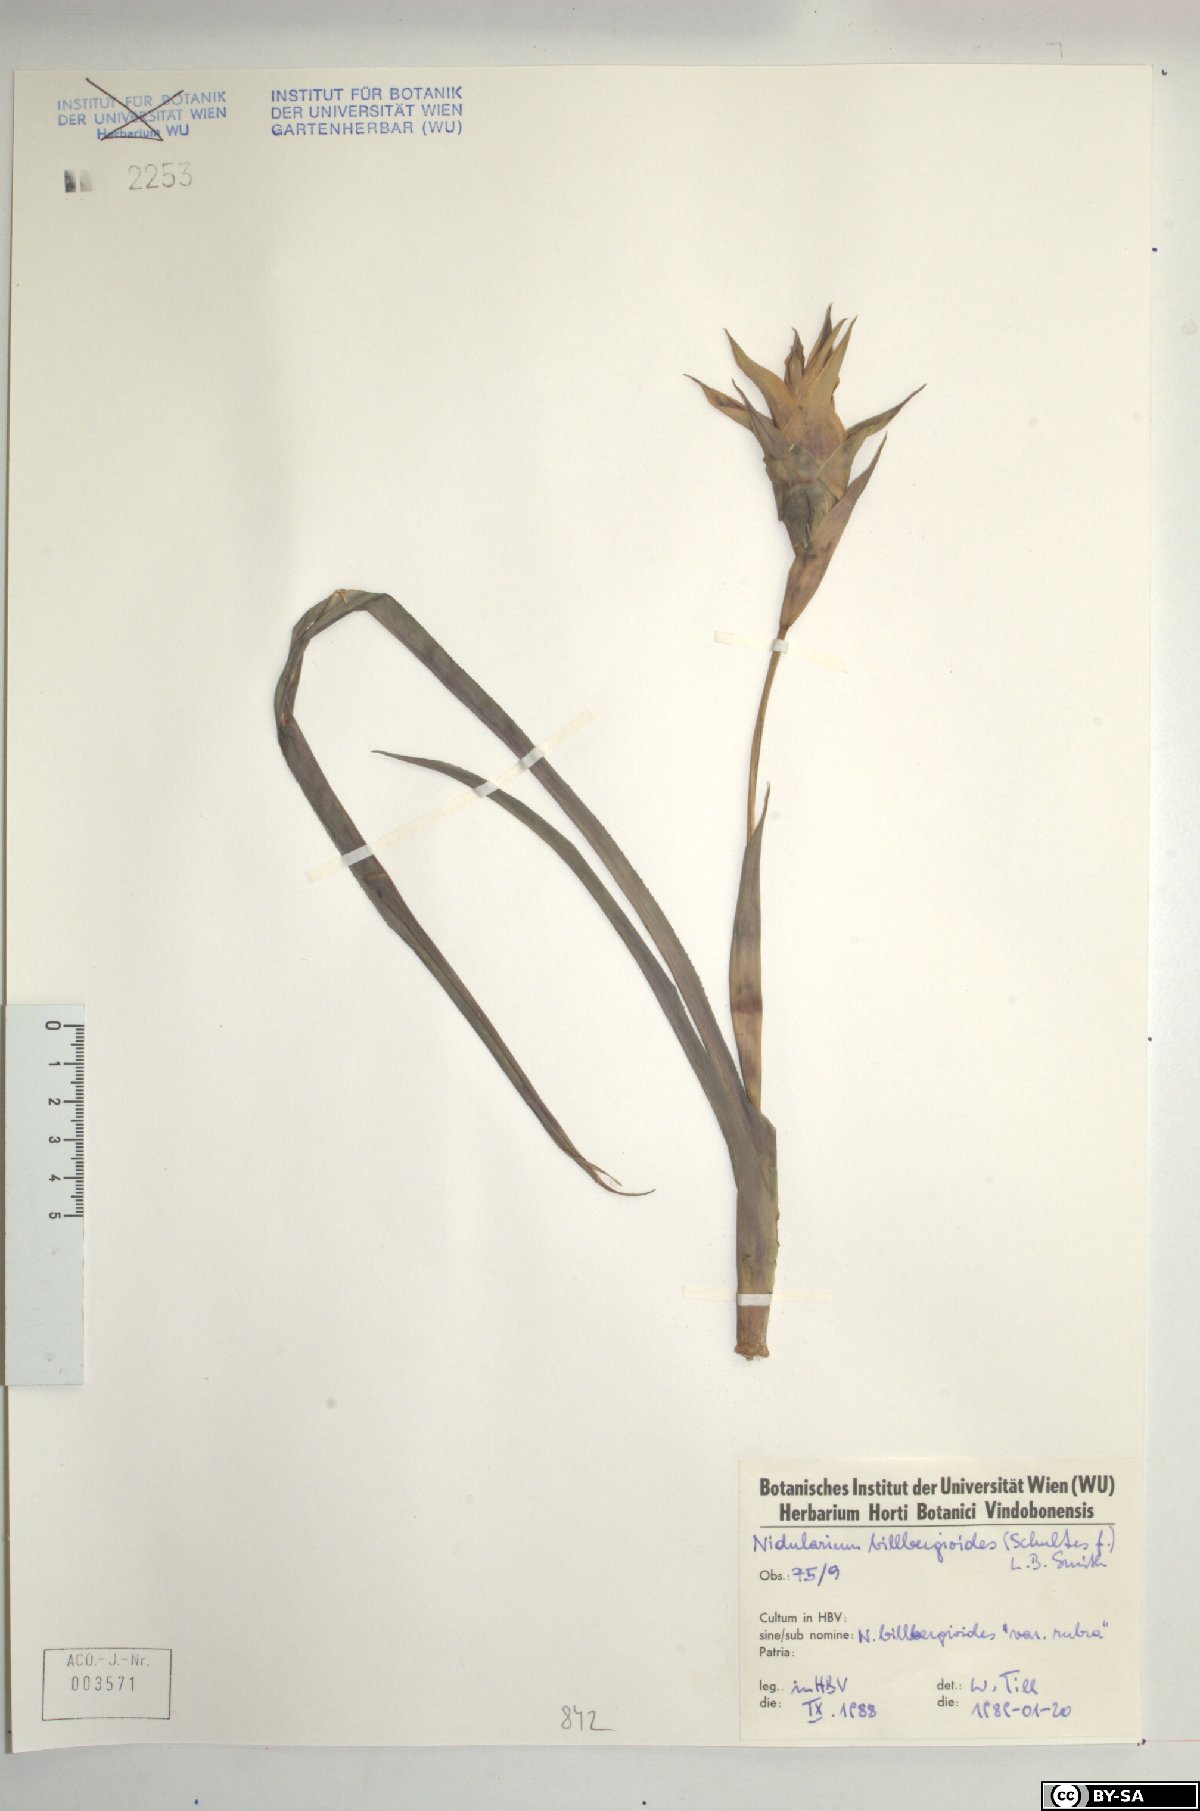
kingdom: Plantae
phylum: Tracheophyta
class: Liliopsida
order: Poales
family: Bromeliaceae
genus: Canistropsis
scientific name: Canistropsis billbergioides
